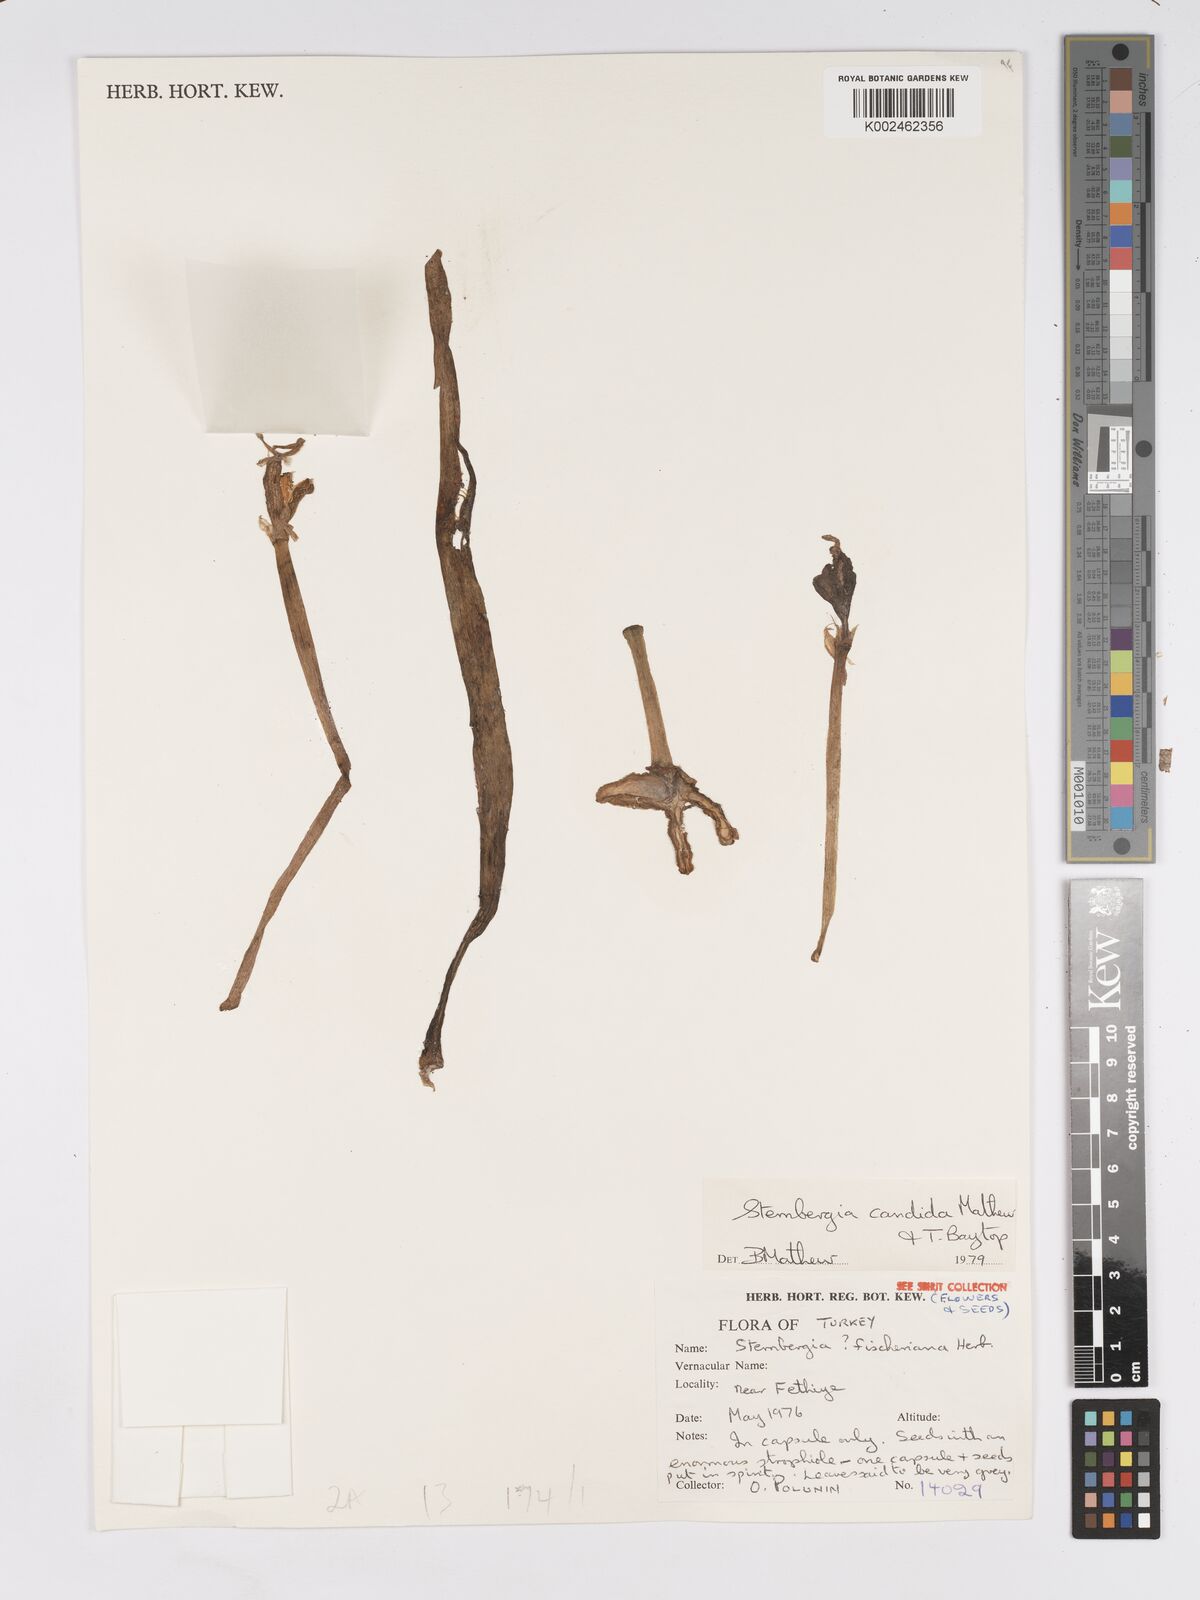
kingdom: Plantae
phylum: Tracheophyta
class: Liliopsida
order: Asparagales
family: Amaryllidaceae
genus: Sternbergia
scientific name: Sternbergia candida
